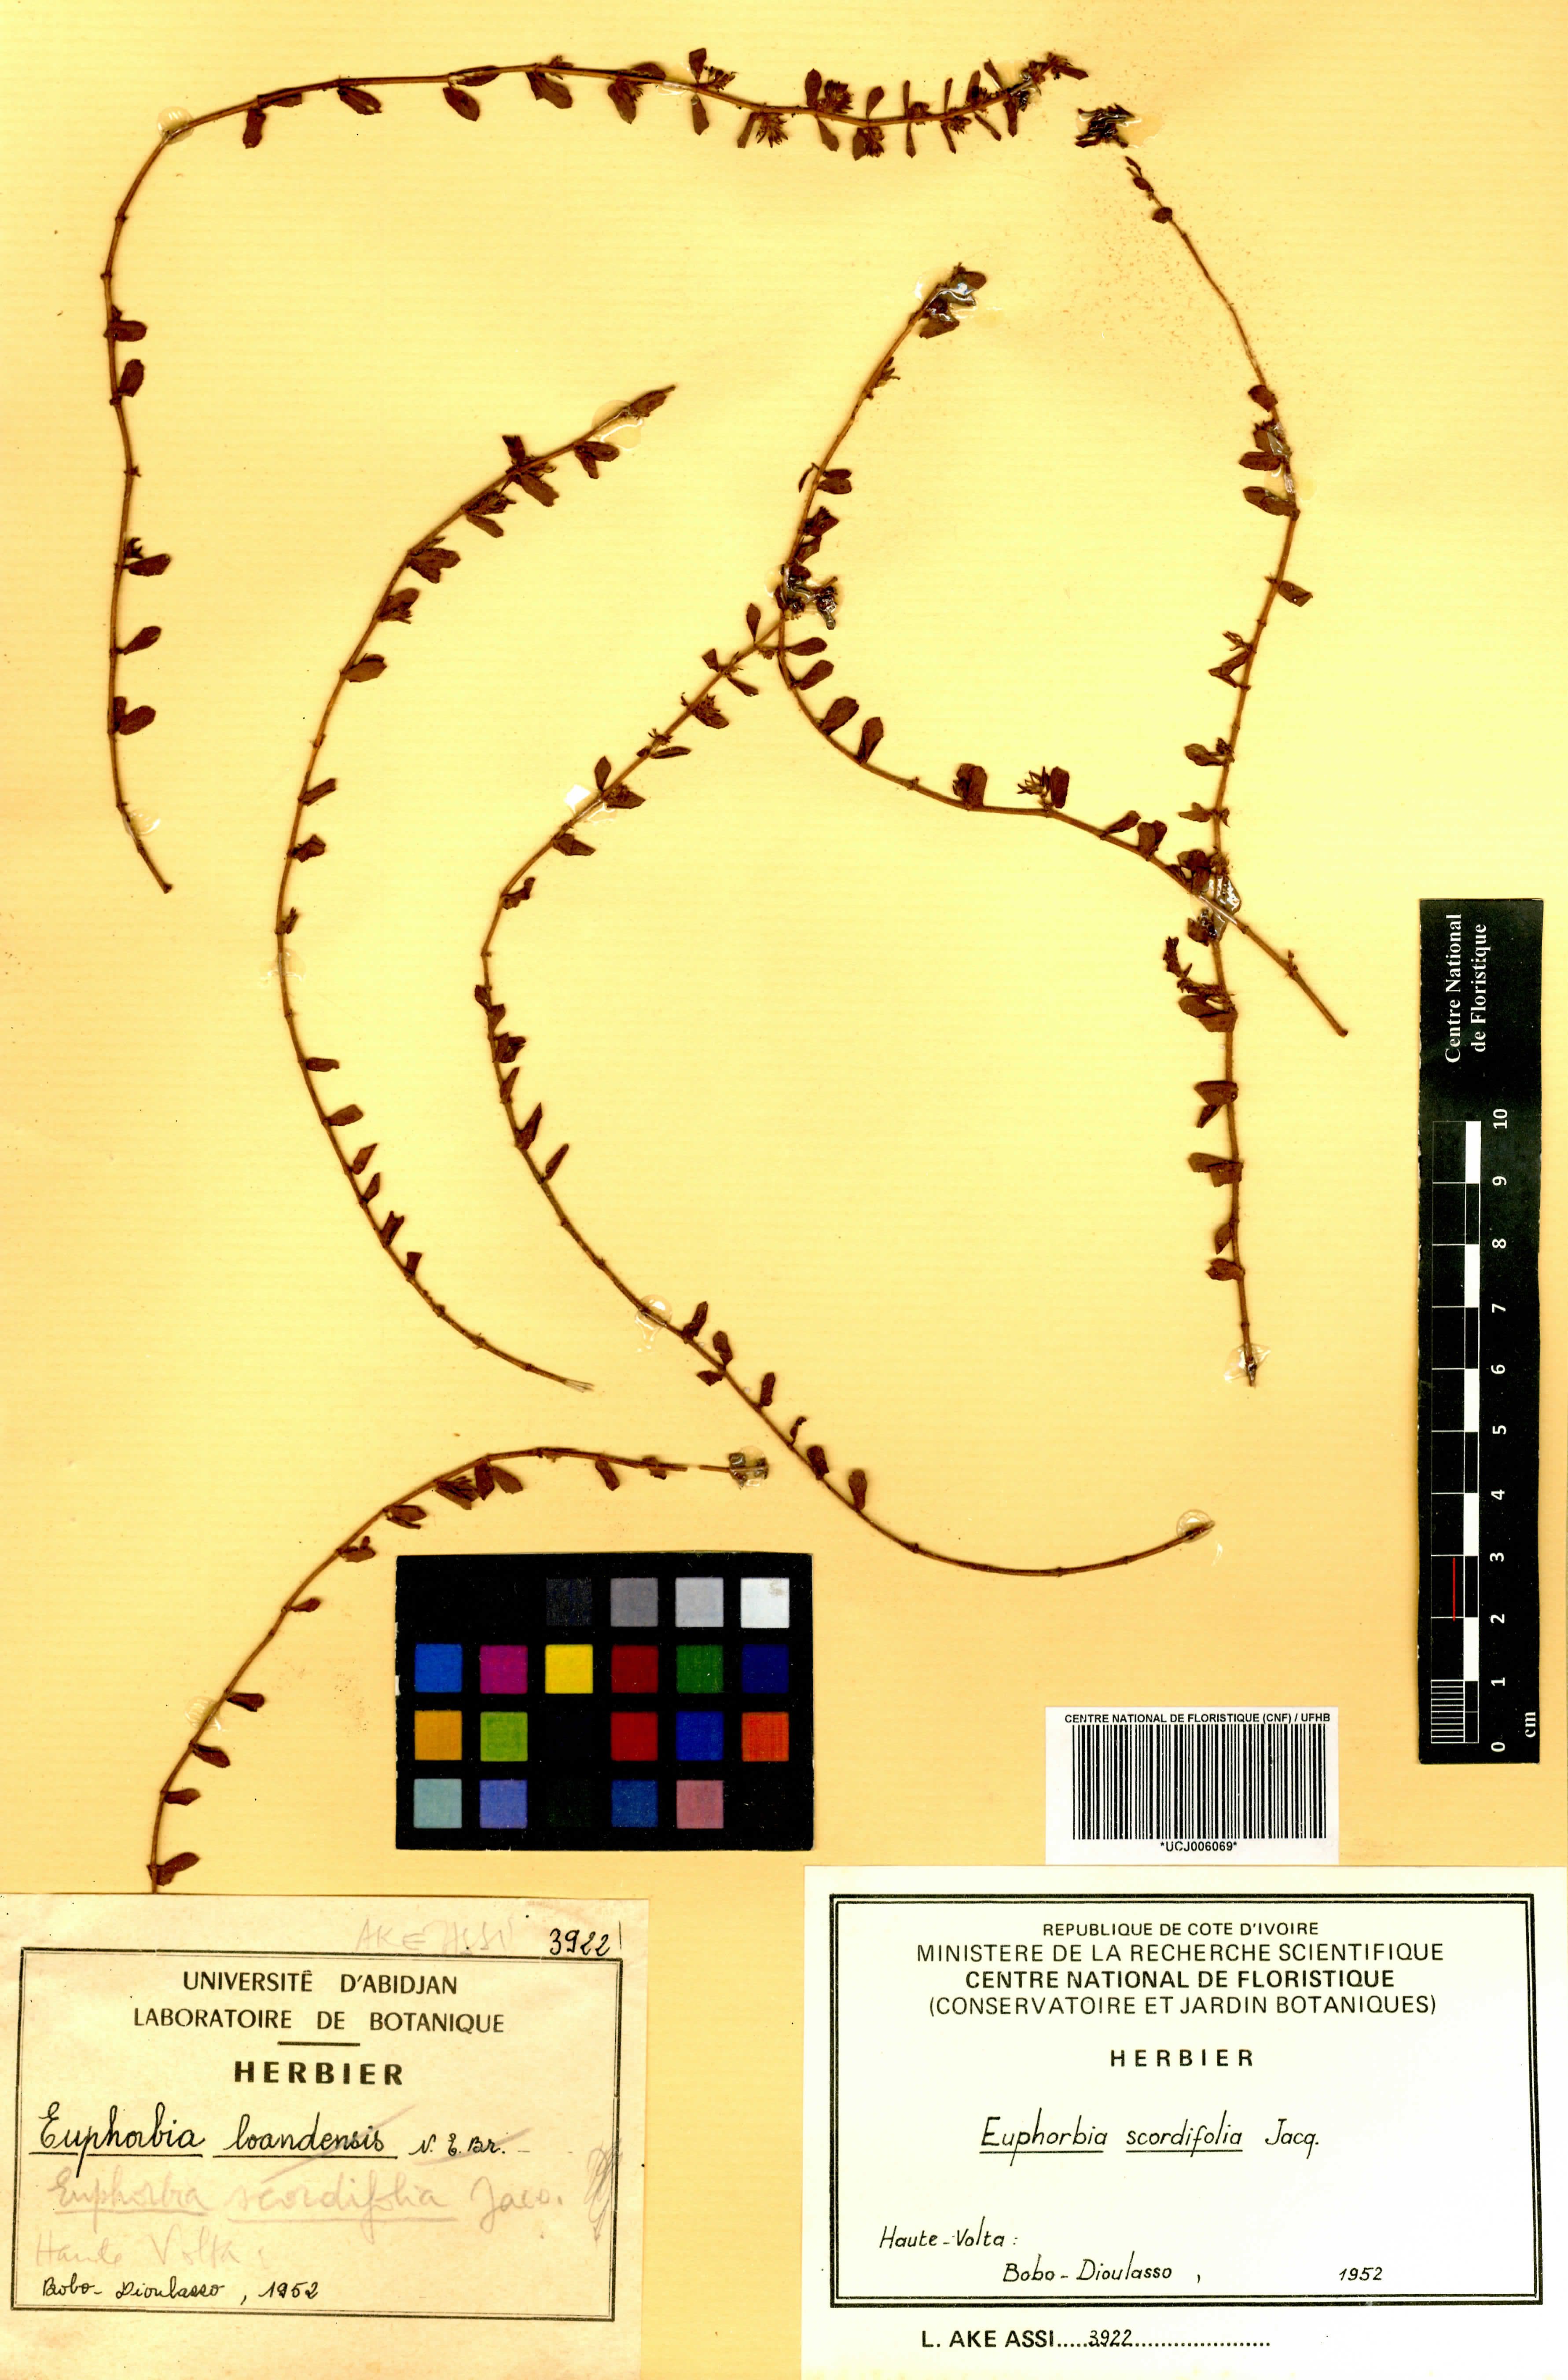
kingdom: Plantae
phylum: Tracheophyta
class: Magnoliopsida
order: Malpighiales
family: Euphorbiaceae
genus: Euphorbia
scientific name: Euphorbia scordiifolia
